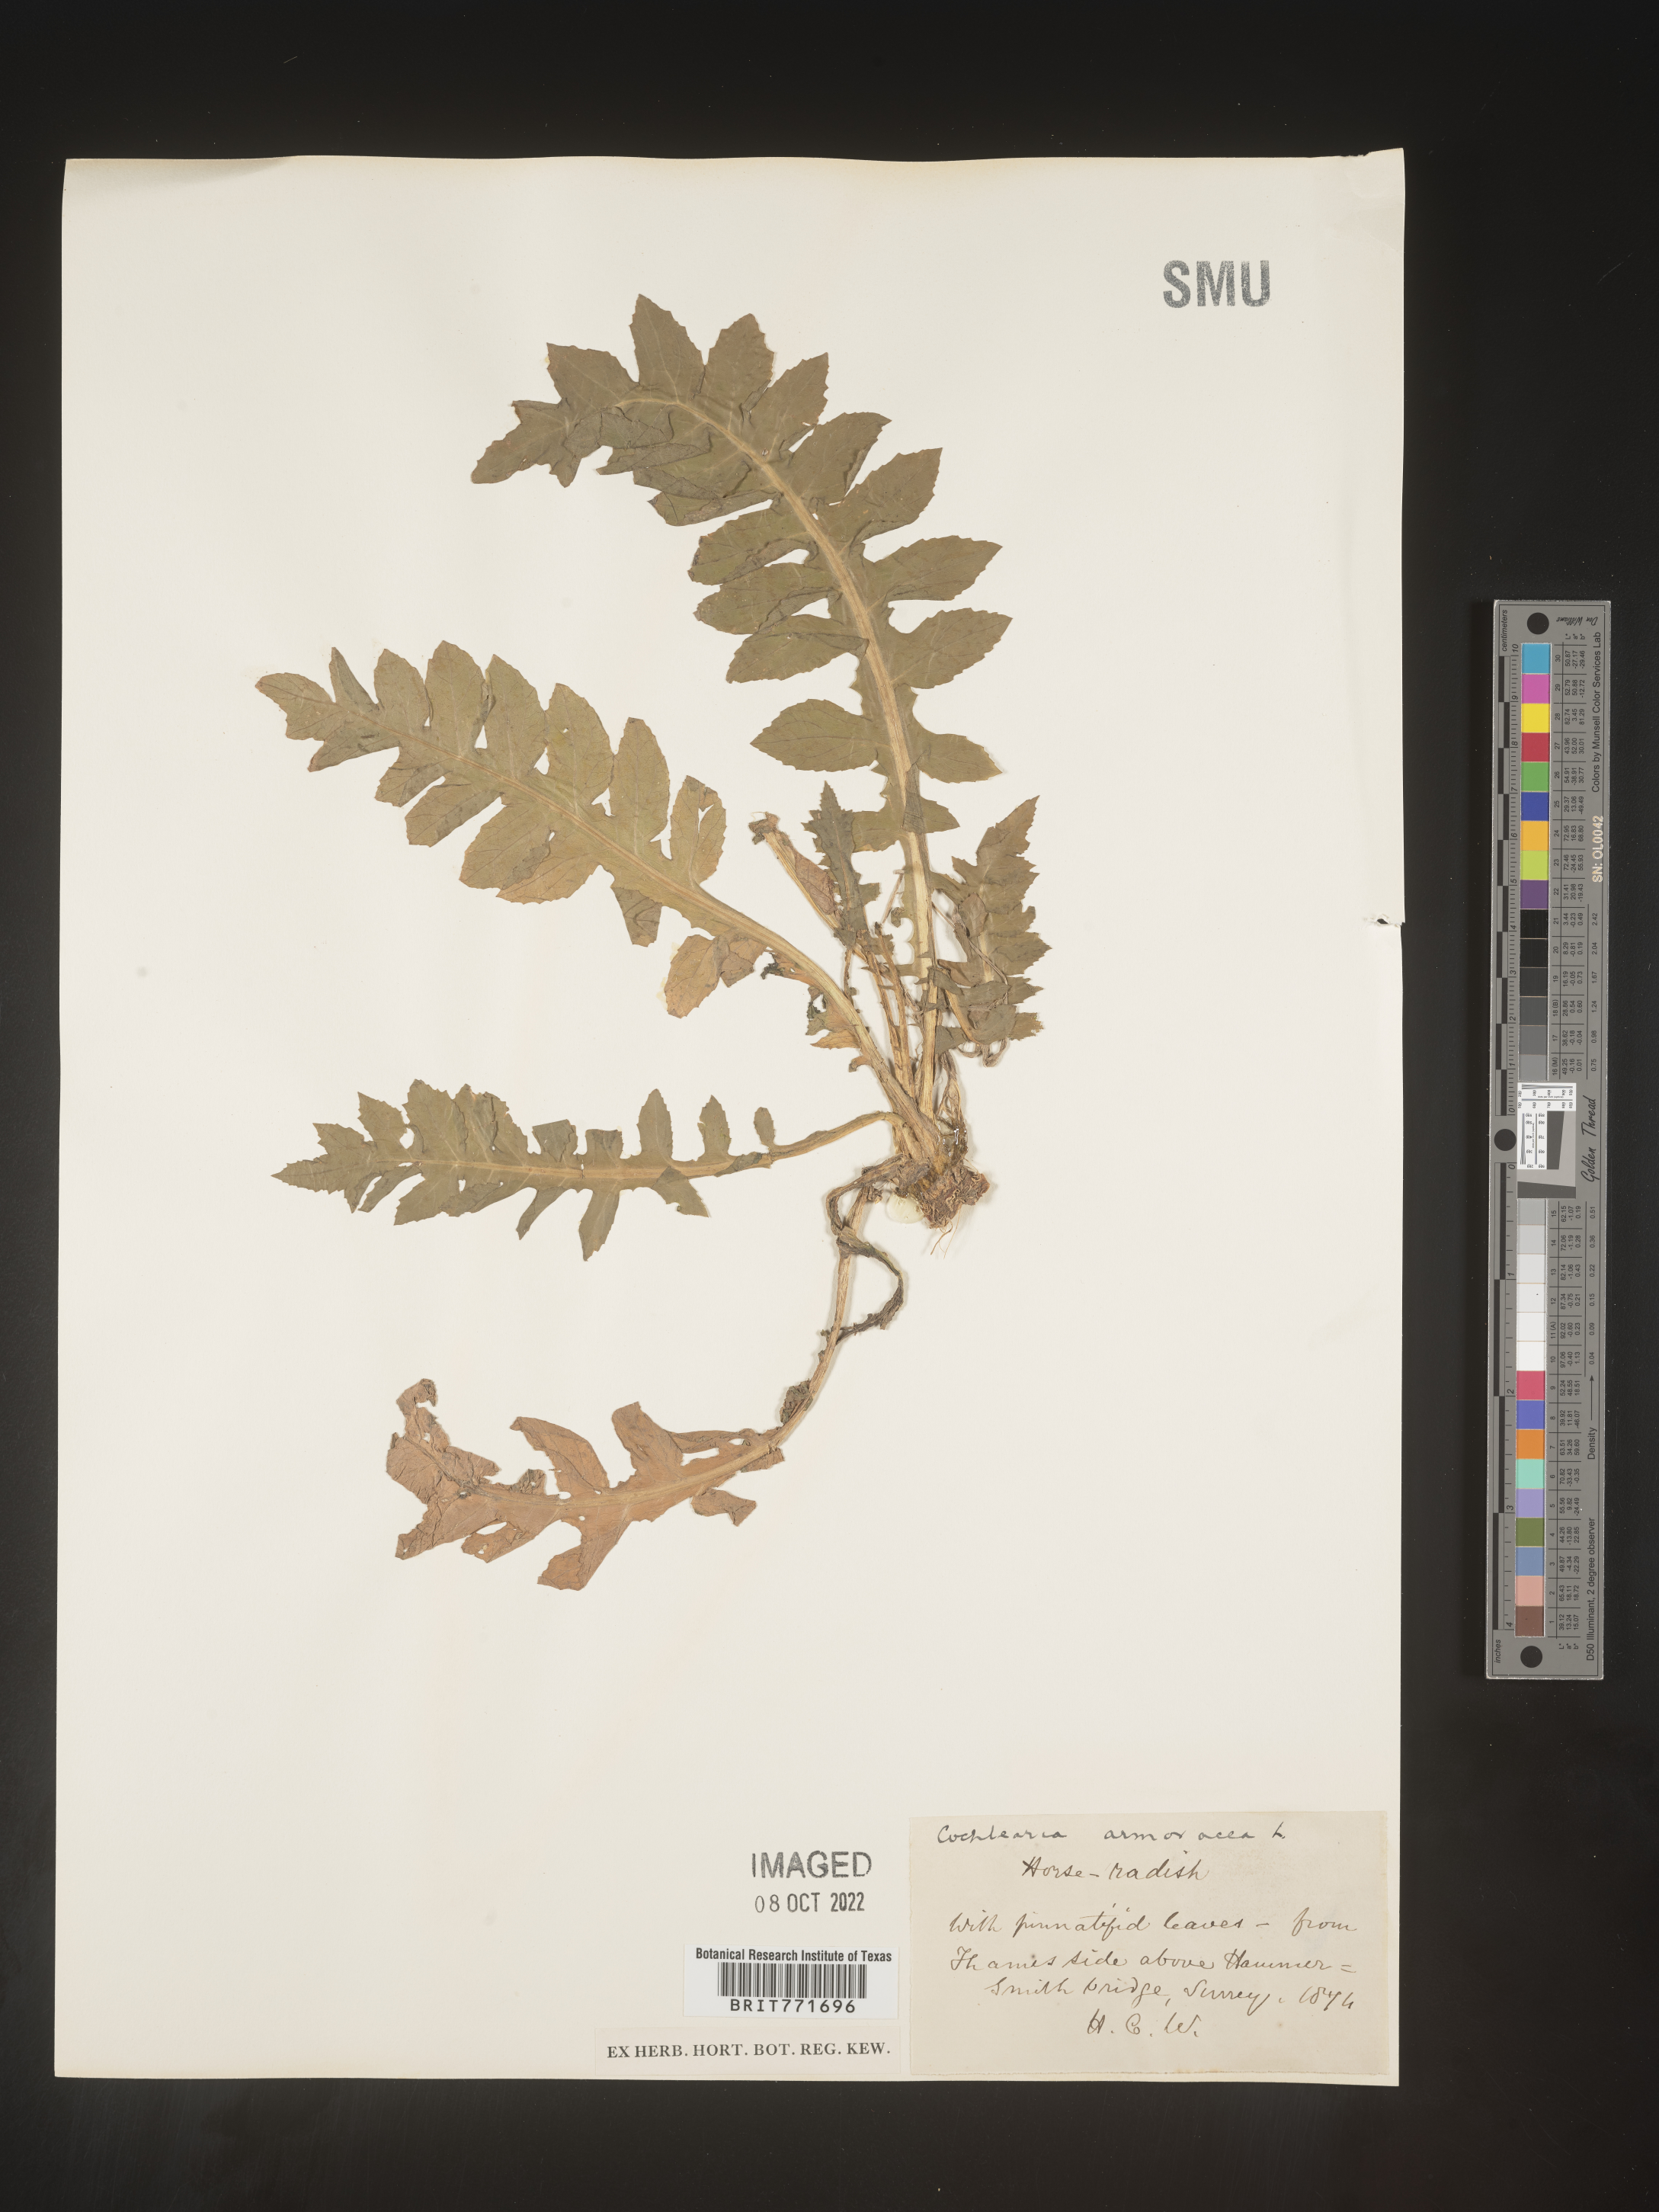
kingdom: Plantae
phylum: Tracheophyta
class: Magnoliopsida
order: Brassicales
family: Brassicaceae
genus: Armoracia
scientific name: Armoracia
